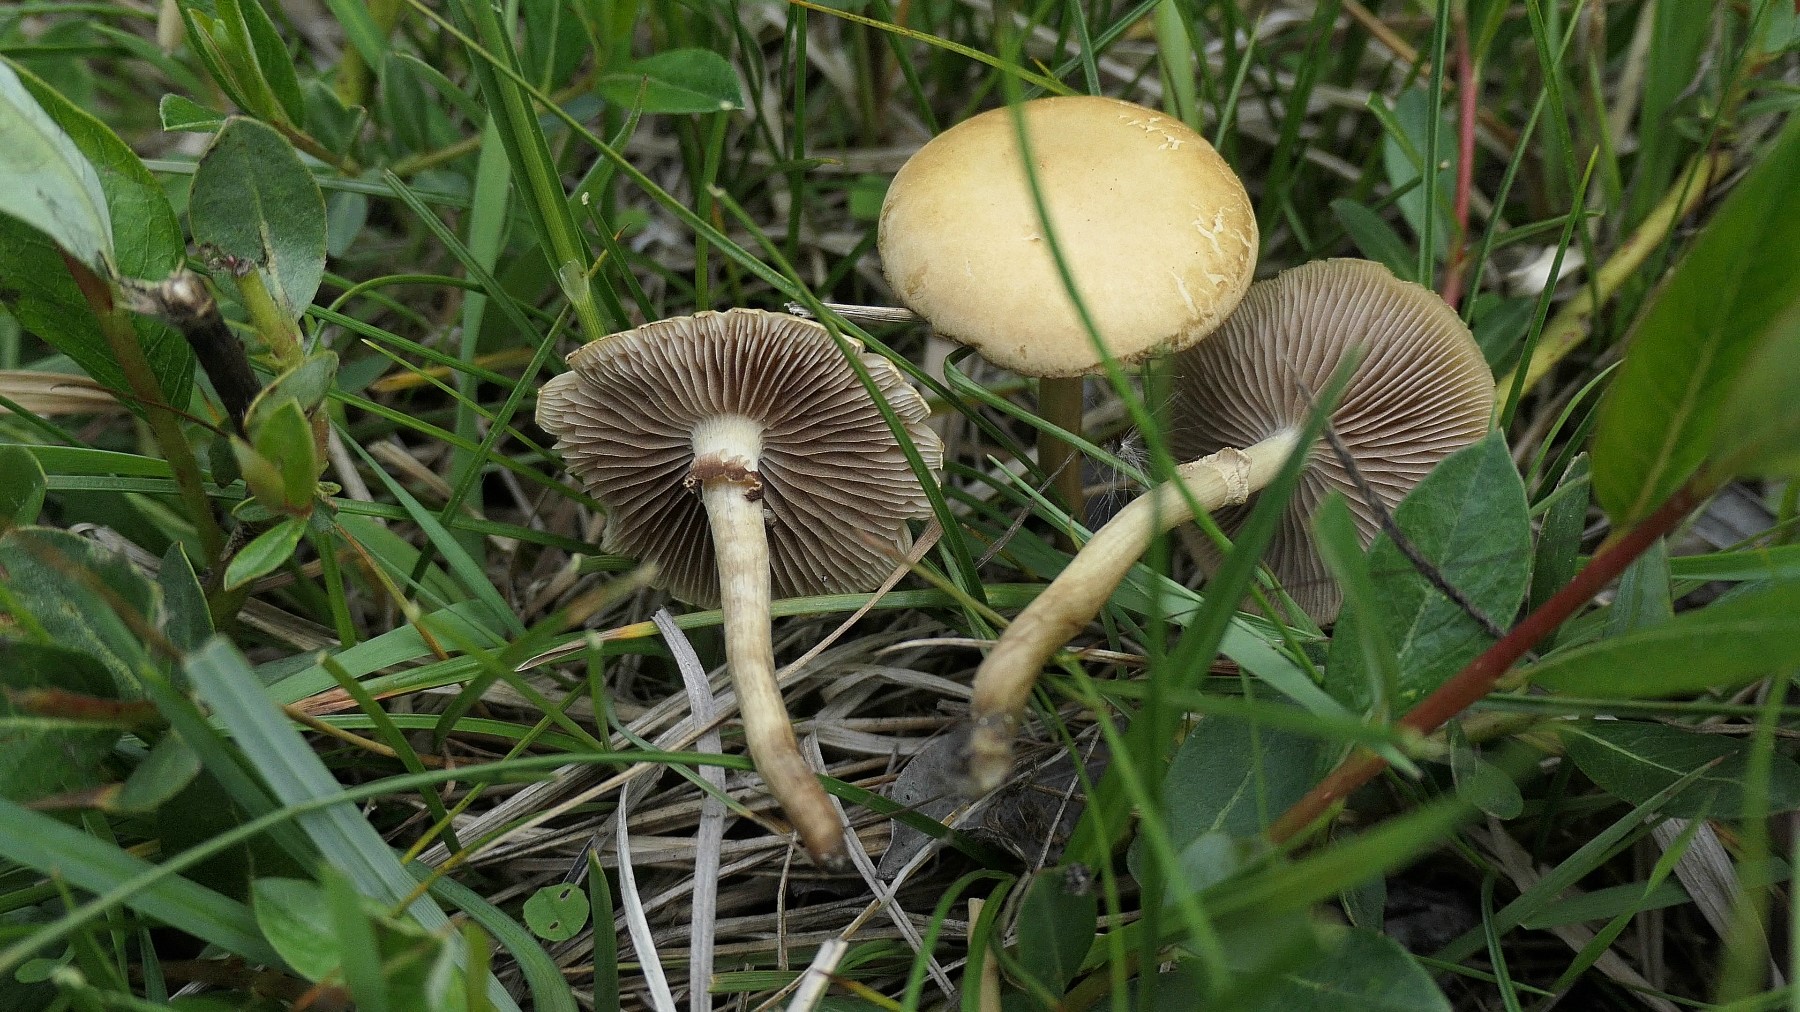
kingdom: Fungi
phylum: Basidiomycota
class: Agaricomycetes
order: Agaricales
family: Strophariaceae
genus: Agrocybe
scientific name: Agrocybe elatella
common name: mose-agerhat
